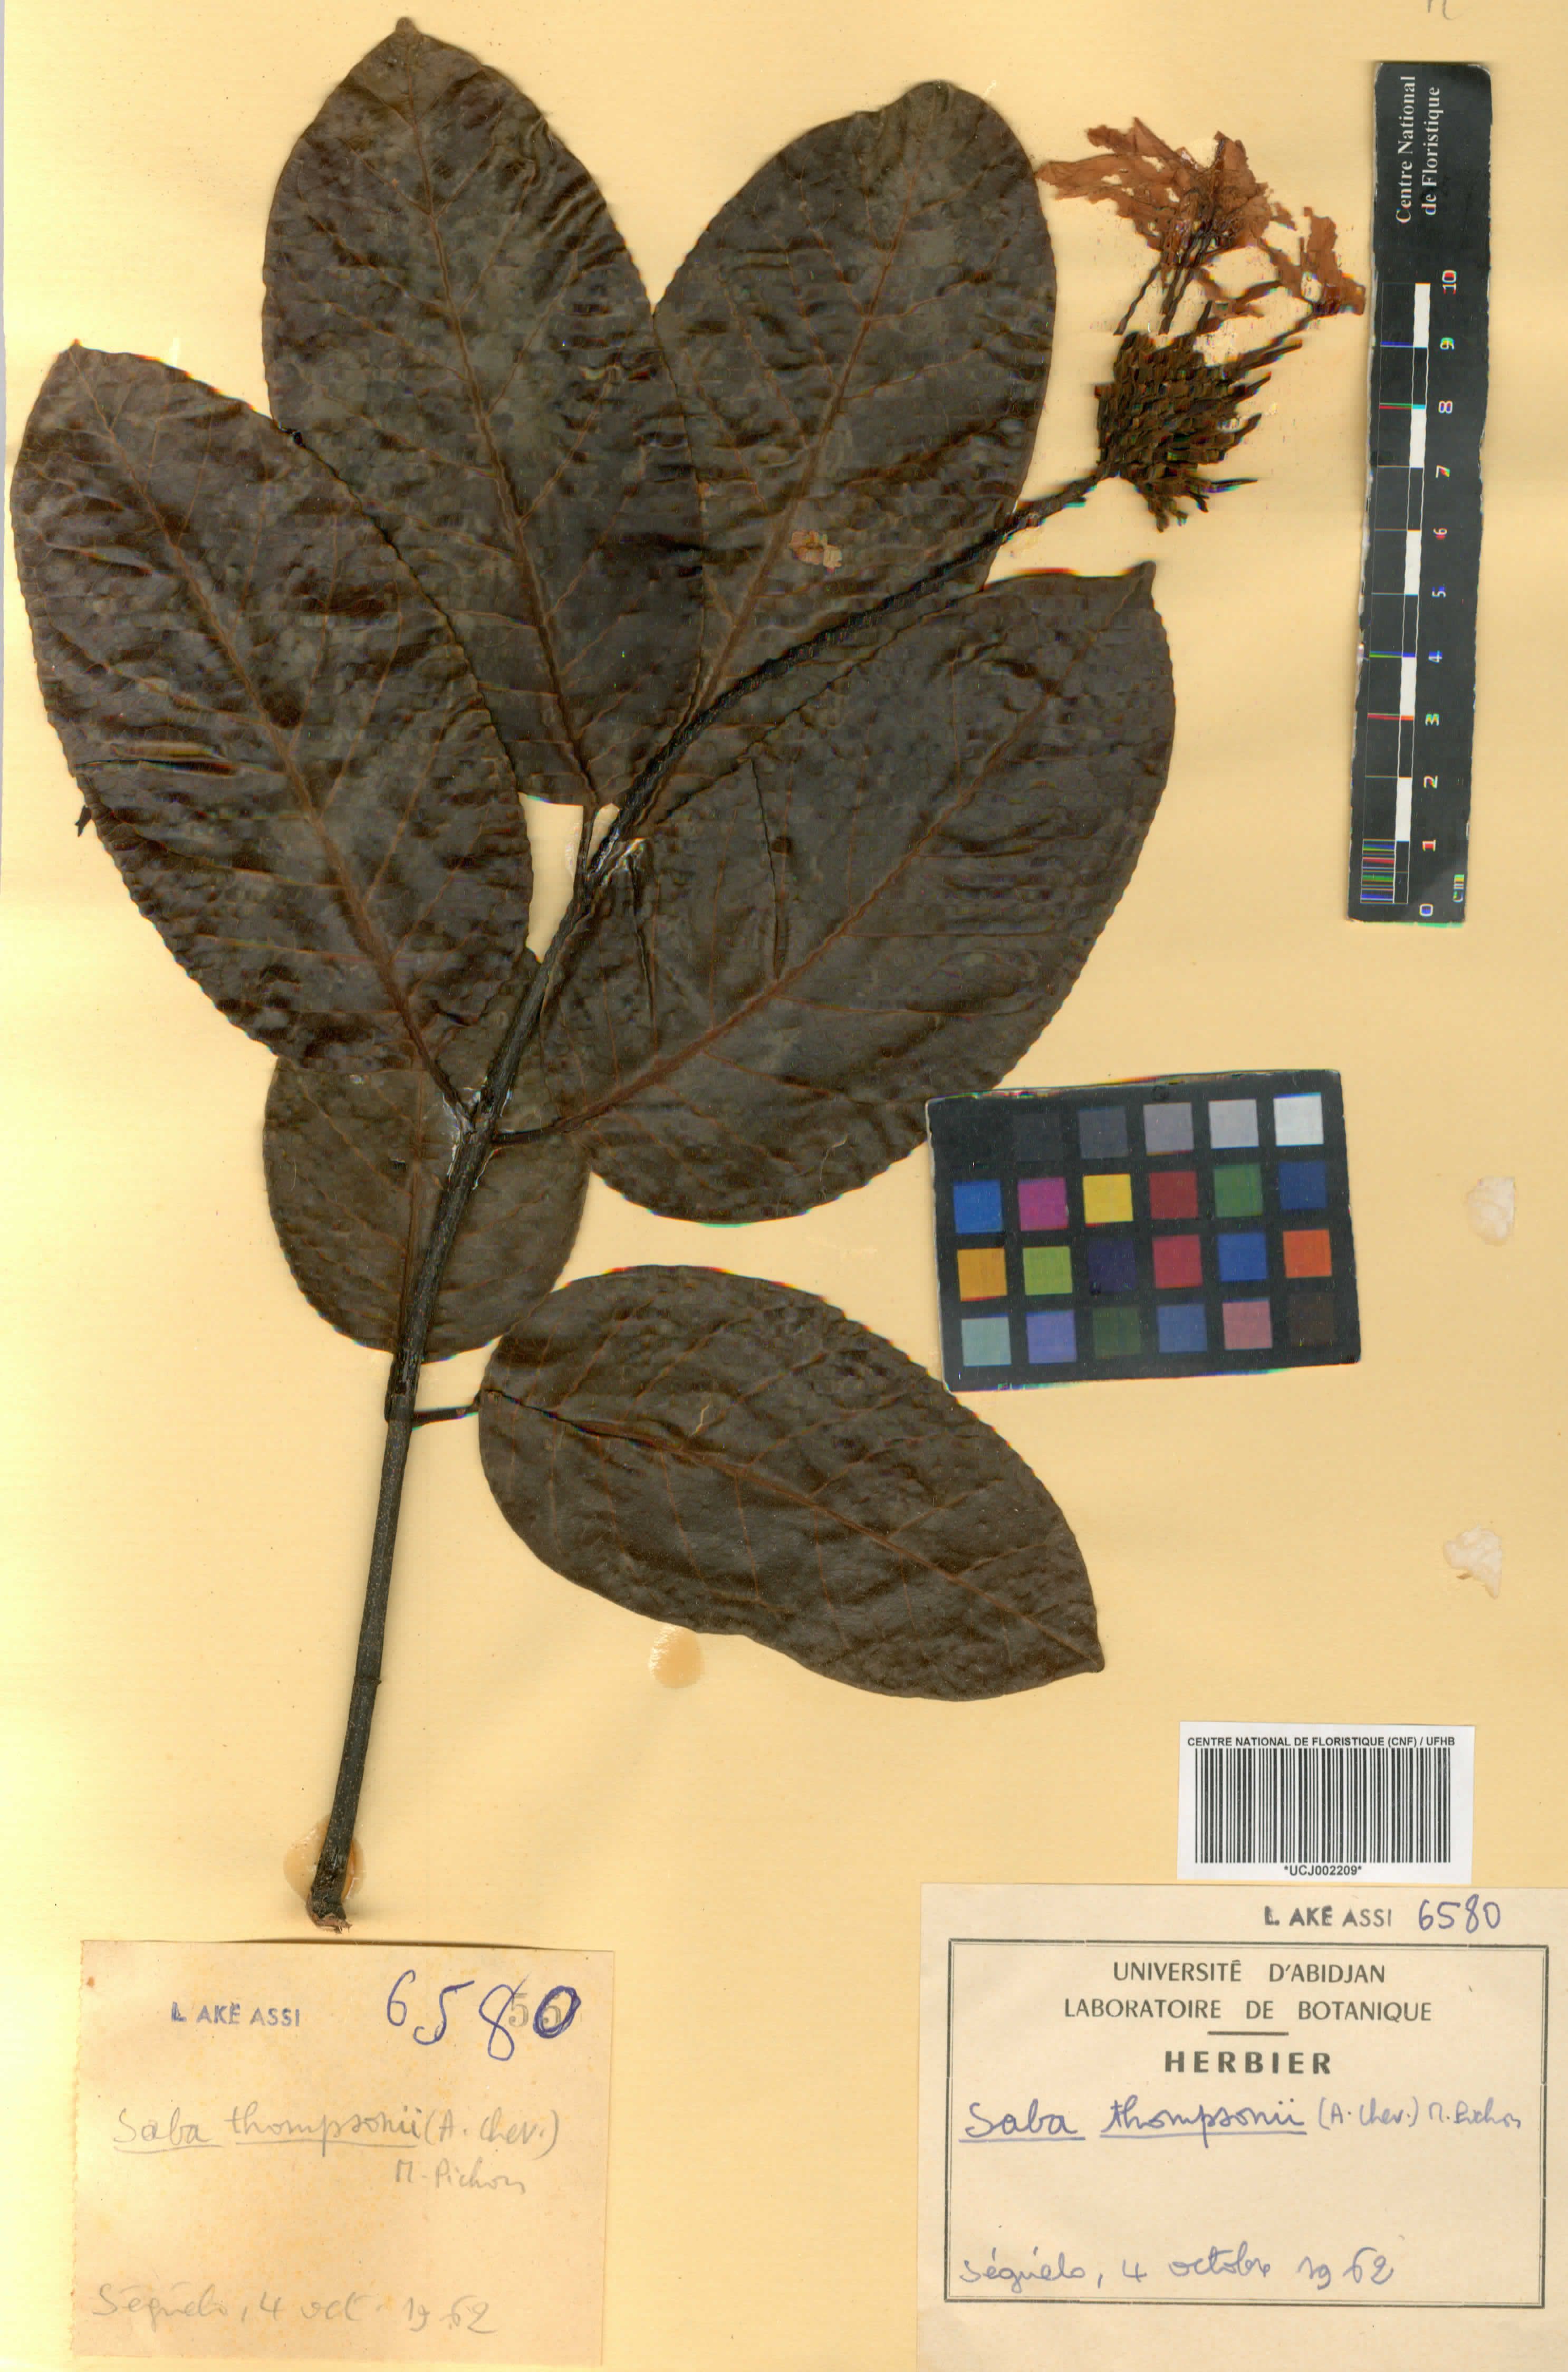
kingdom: Plantae
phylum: Tracheophyta
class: Magnoliopsida
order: Gentianales
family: Apocynaceae
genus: Saba
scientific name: Saba thompsonii
